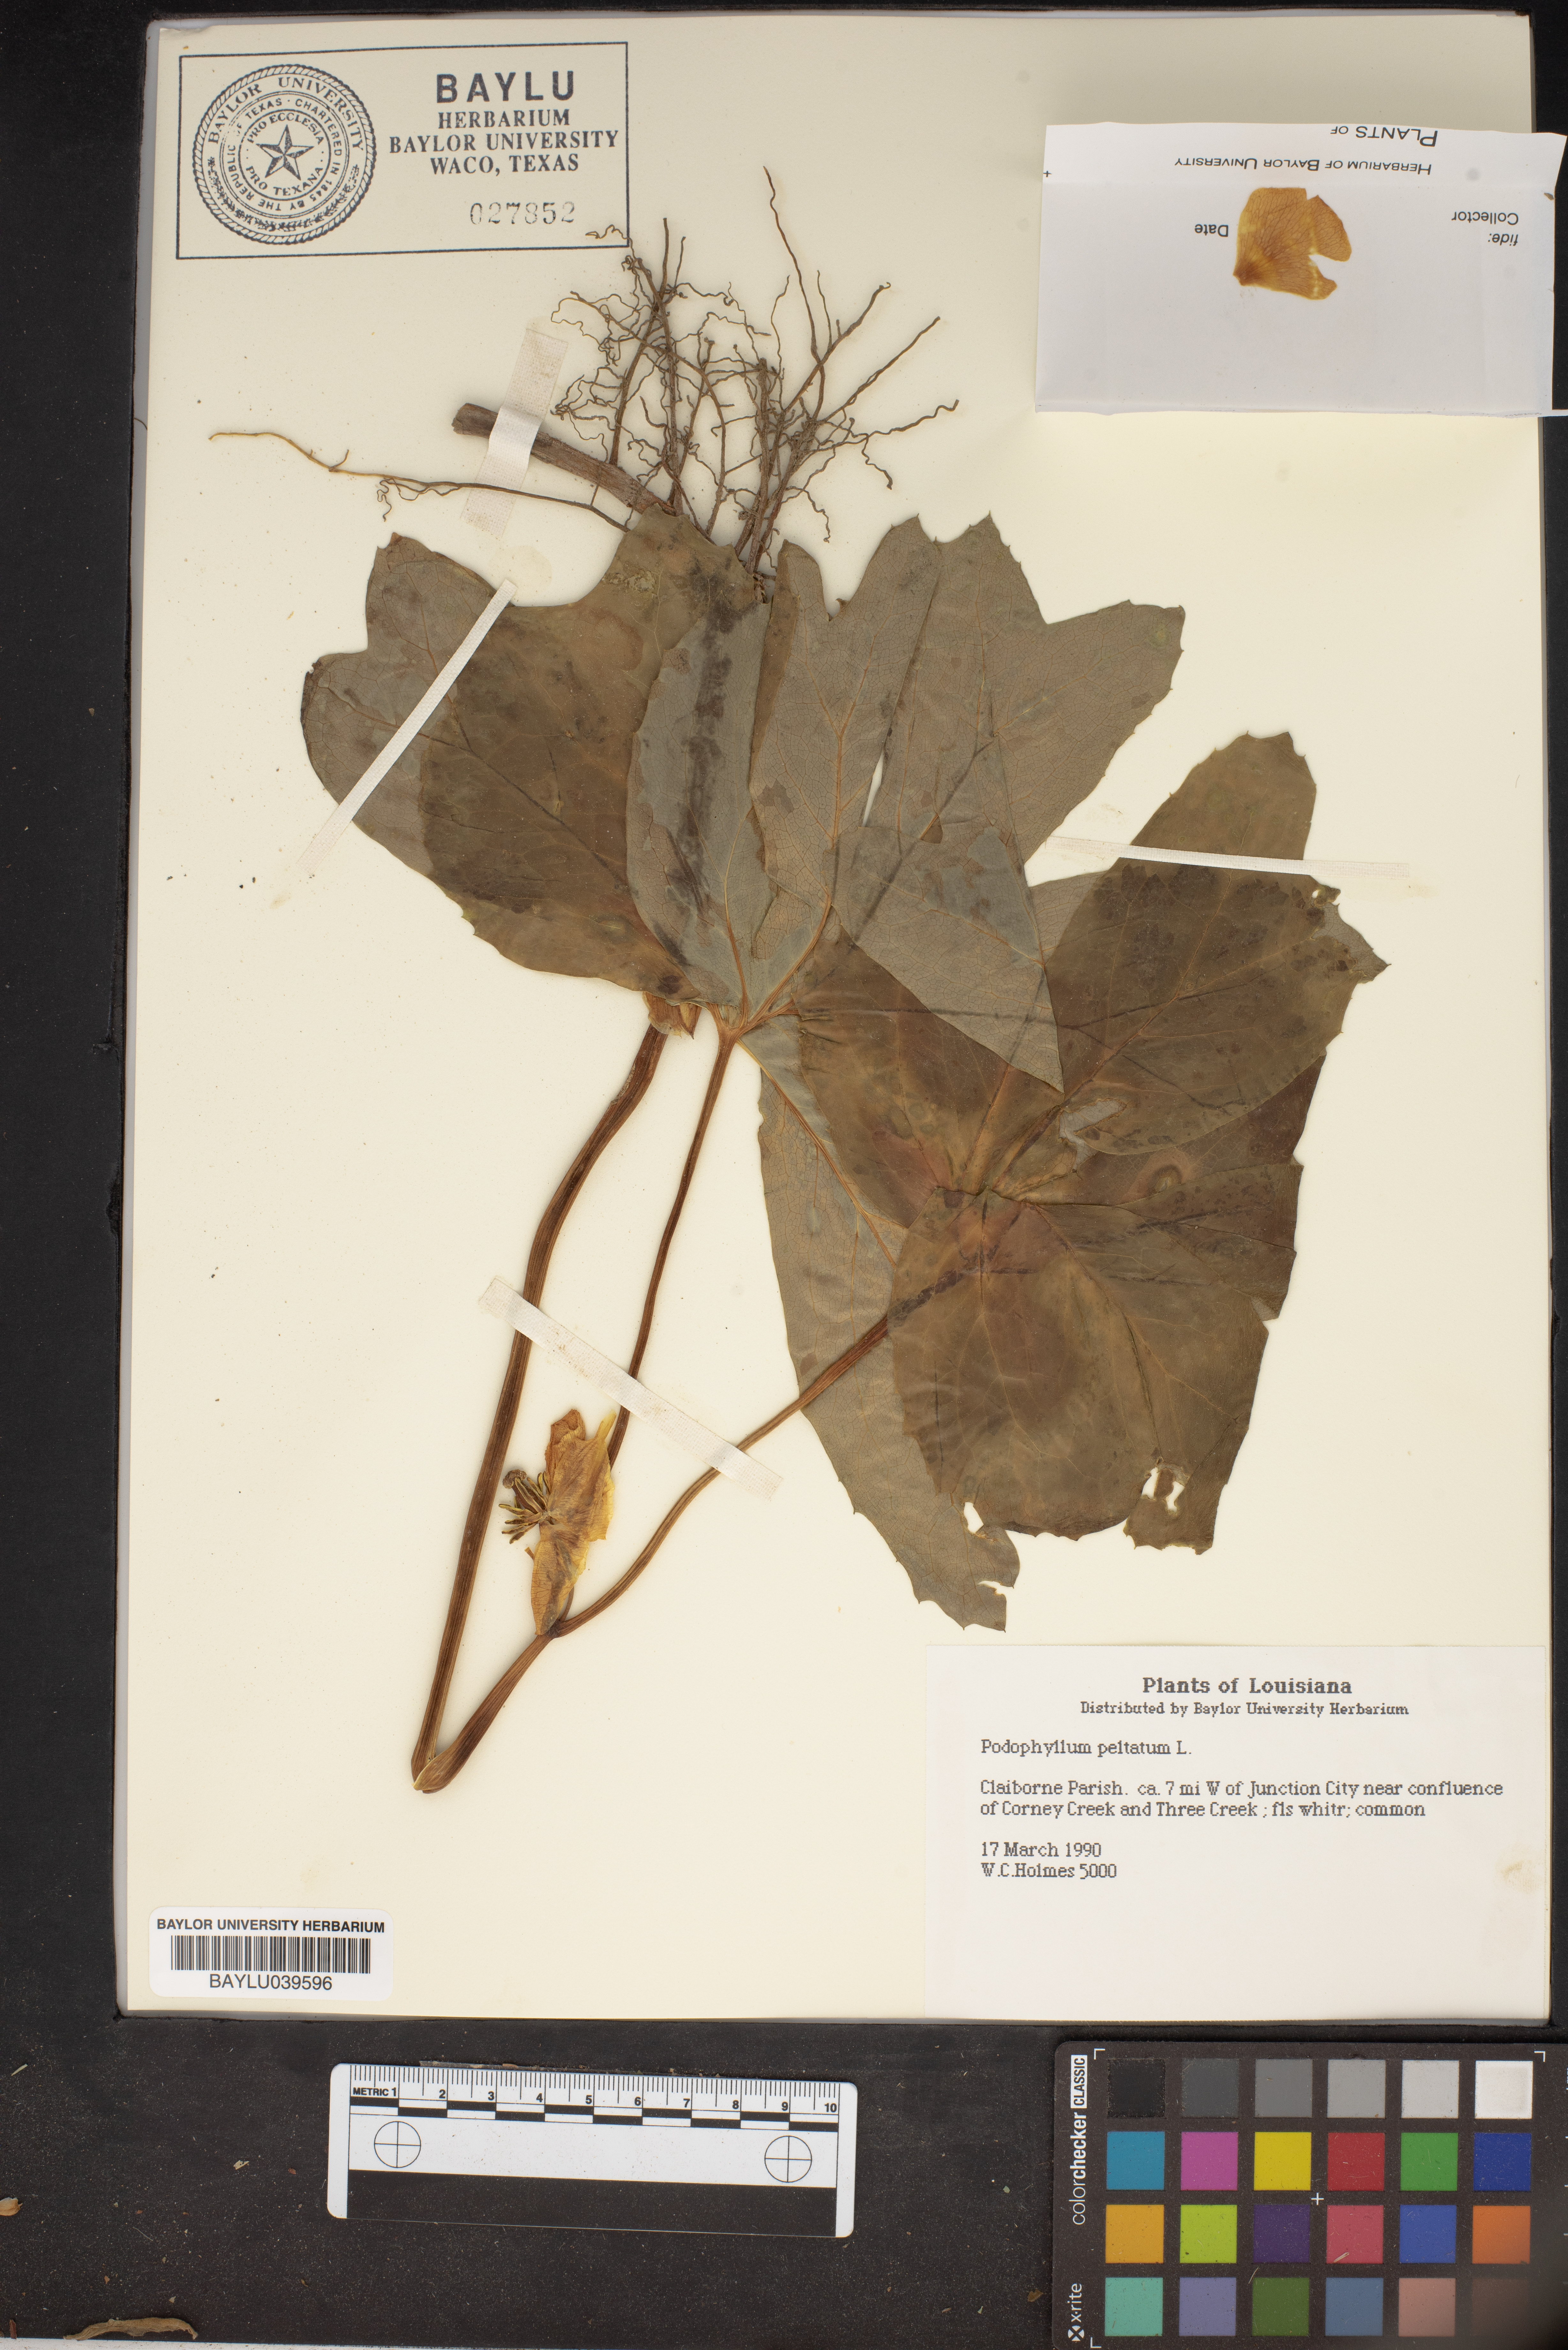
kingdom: Plantae
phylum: Tracheophyta
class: Magnoliopsida
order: Ranunculales
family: Berberidaceae
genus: Podophyllum
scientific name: Podophyllum peltatum
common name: Wild mandrake
